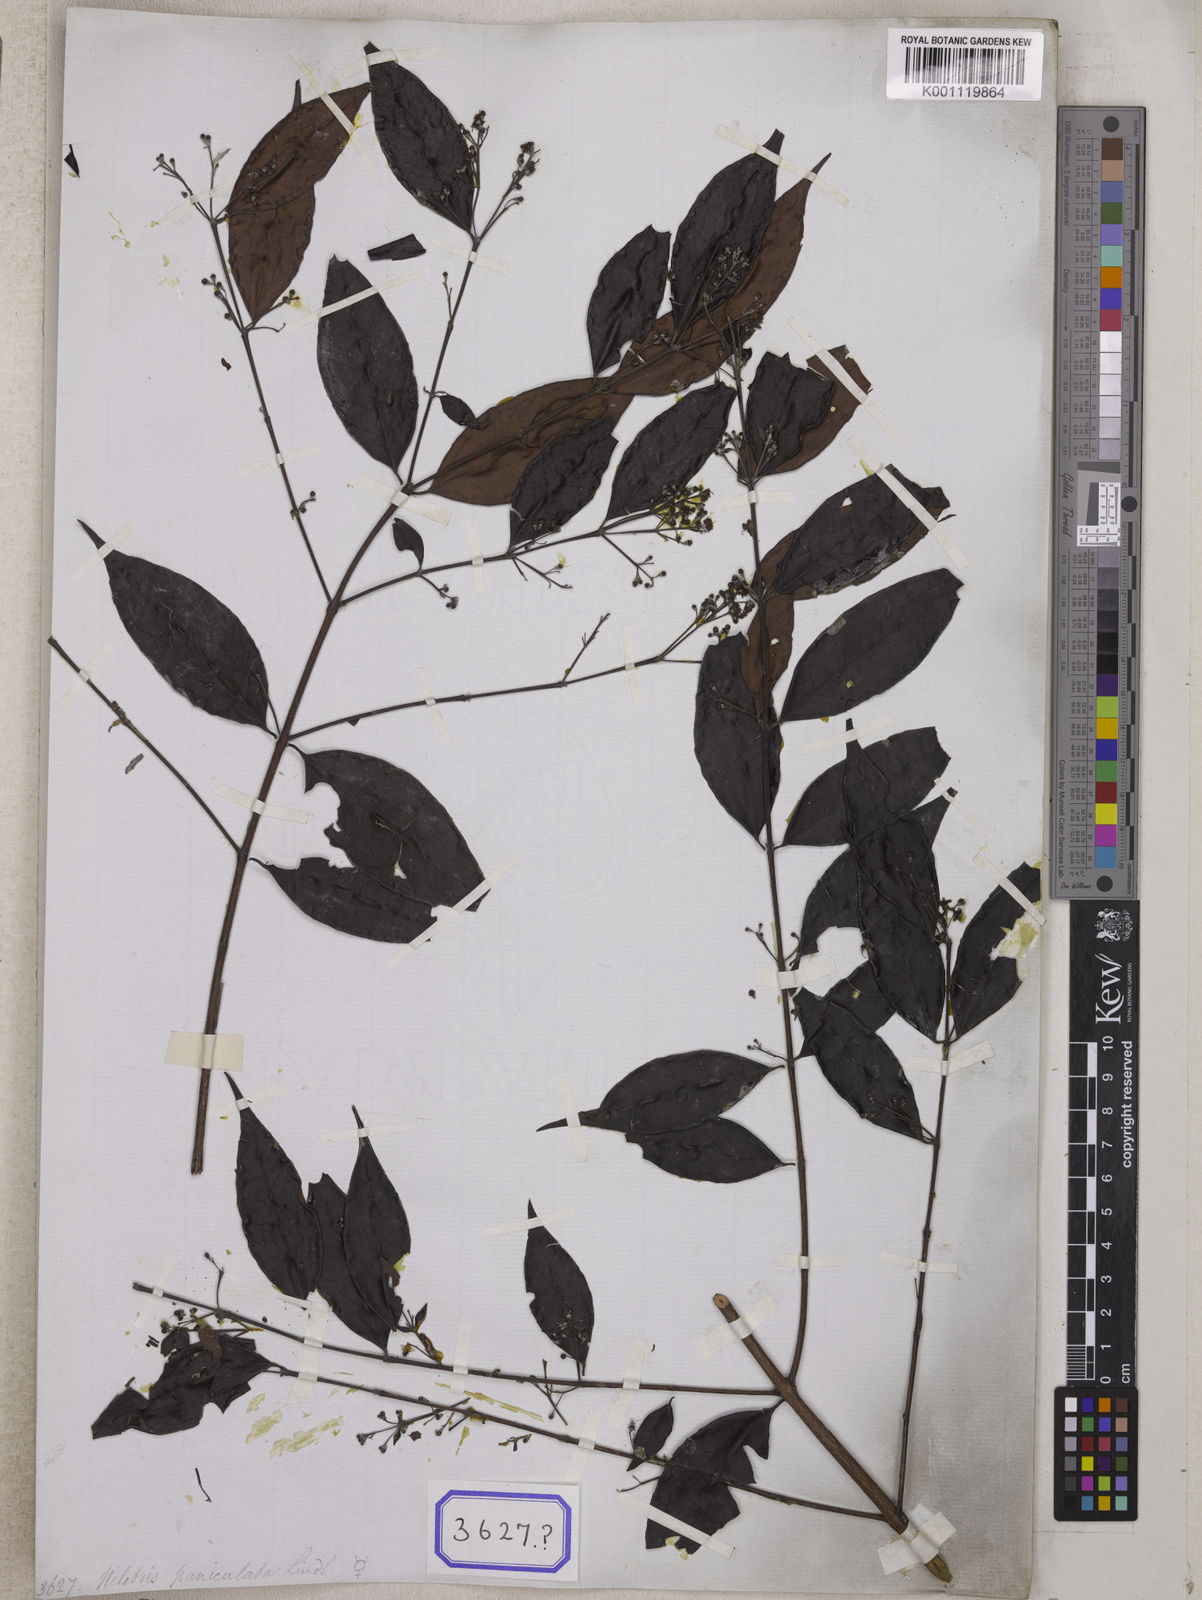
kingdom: Plantae
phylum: Tracheophyta
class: Magnoliopsida
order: Myrtales
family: Myrtaceae
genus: Decaspermum
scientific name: Decaspermum parviflorum
